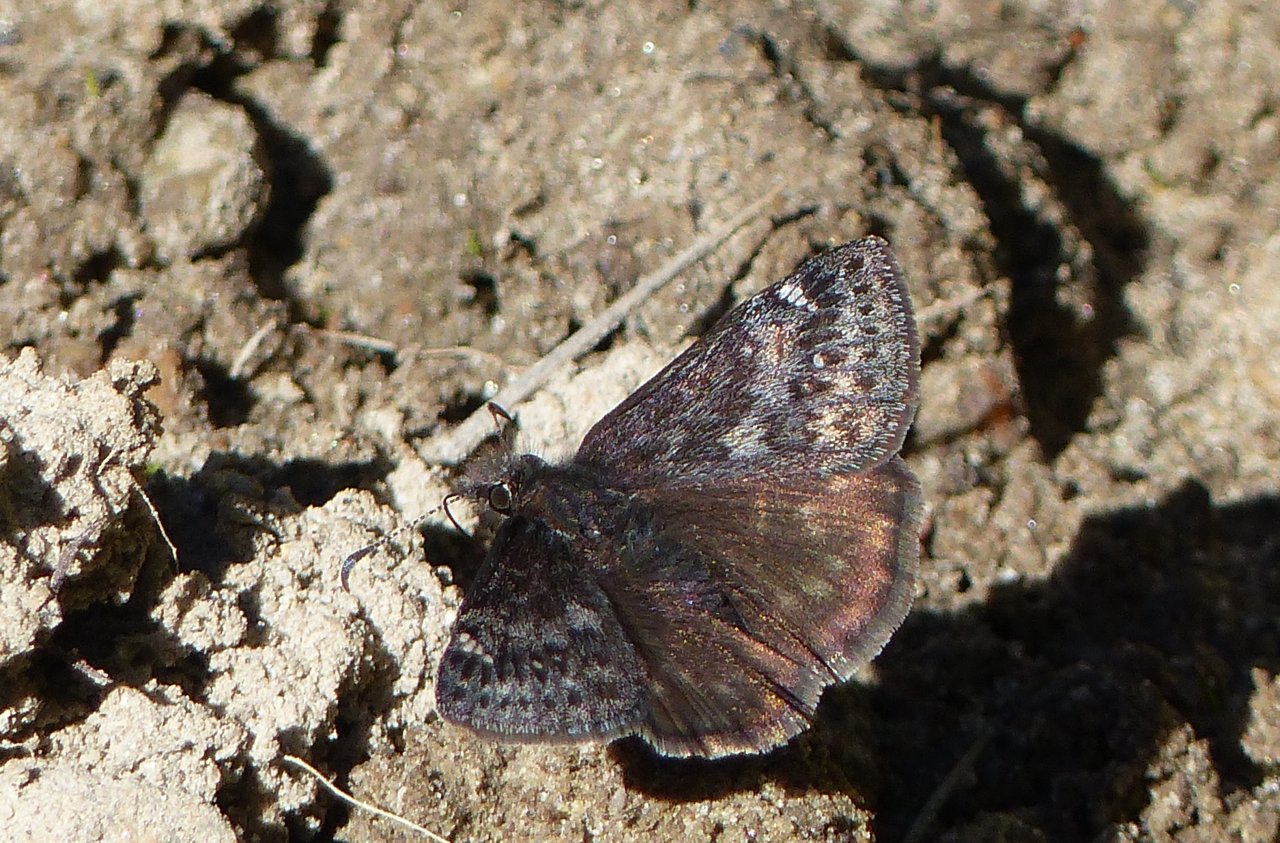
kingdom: Animalia
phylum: Arthropoda
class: Insecta
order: Lepidoptera
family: Hesperiidae
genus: Gesta
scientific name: Gesta
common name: Persius Duskywing
